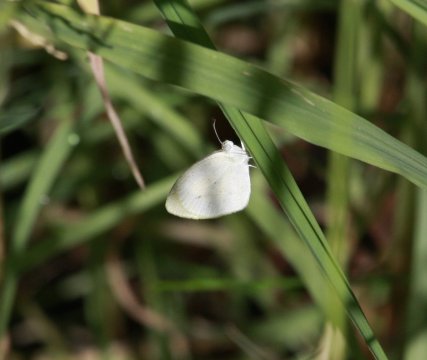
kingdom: Animalia
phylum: Arthropoda
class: Insecta
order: Lepidoptera
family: Pieridae
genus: Eurema
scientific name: Eurema daira
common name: Barred Yellow
